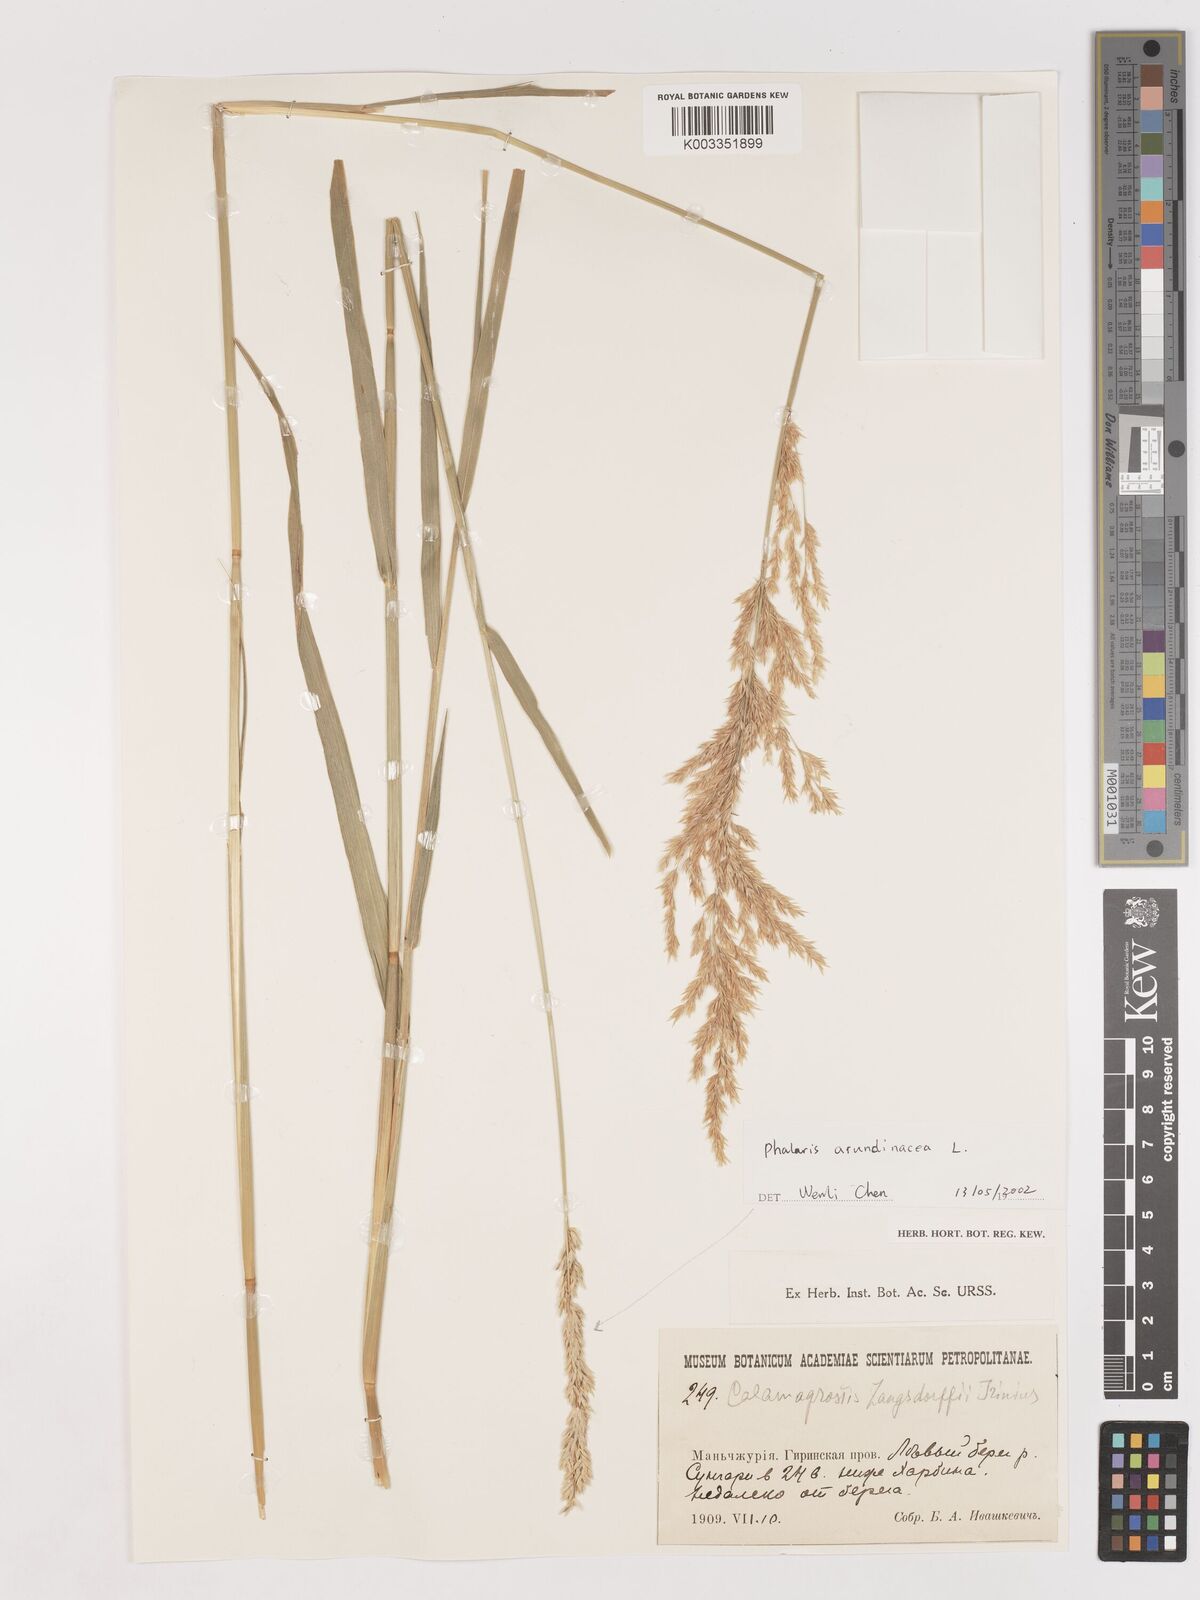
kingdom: Plantae
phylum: Tracheophyta
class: Liliopsida
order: Poales
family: Poaceae
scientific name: Poaceae
